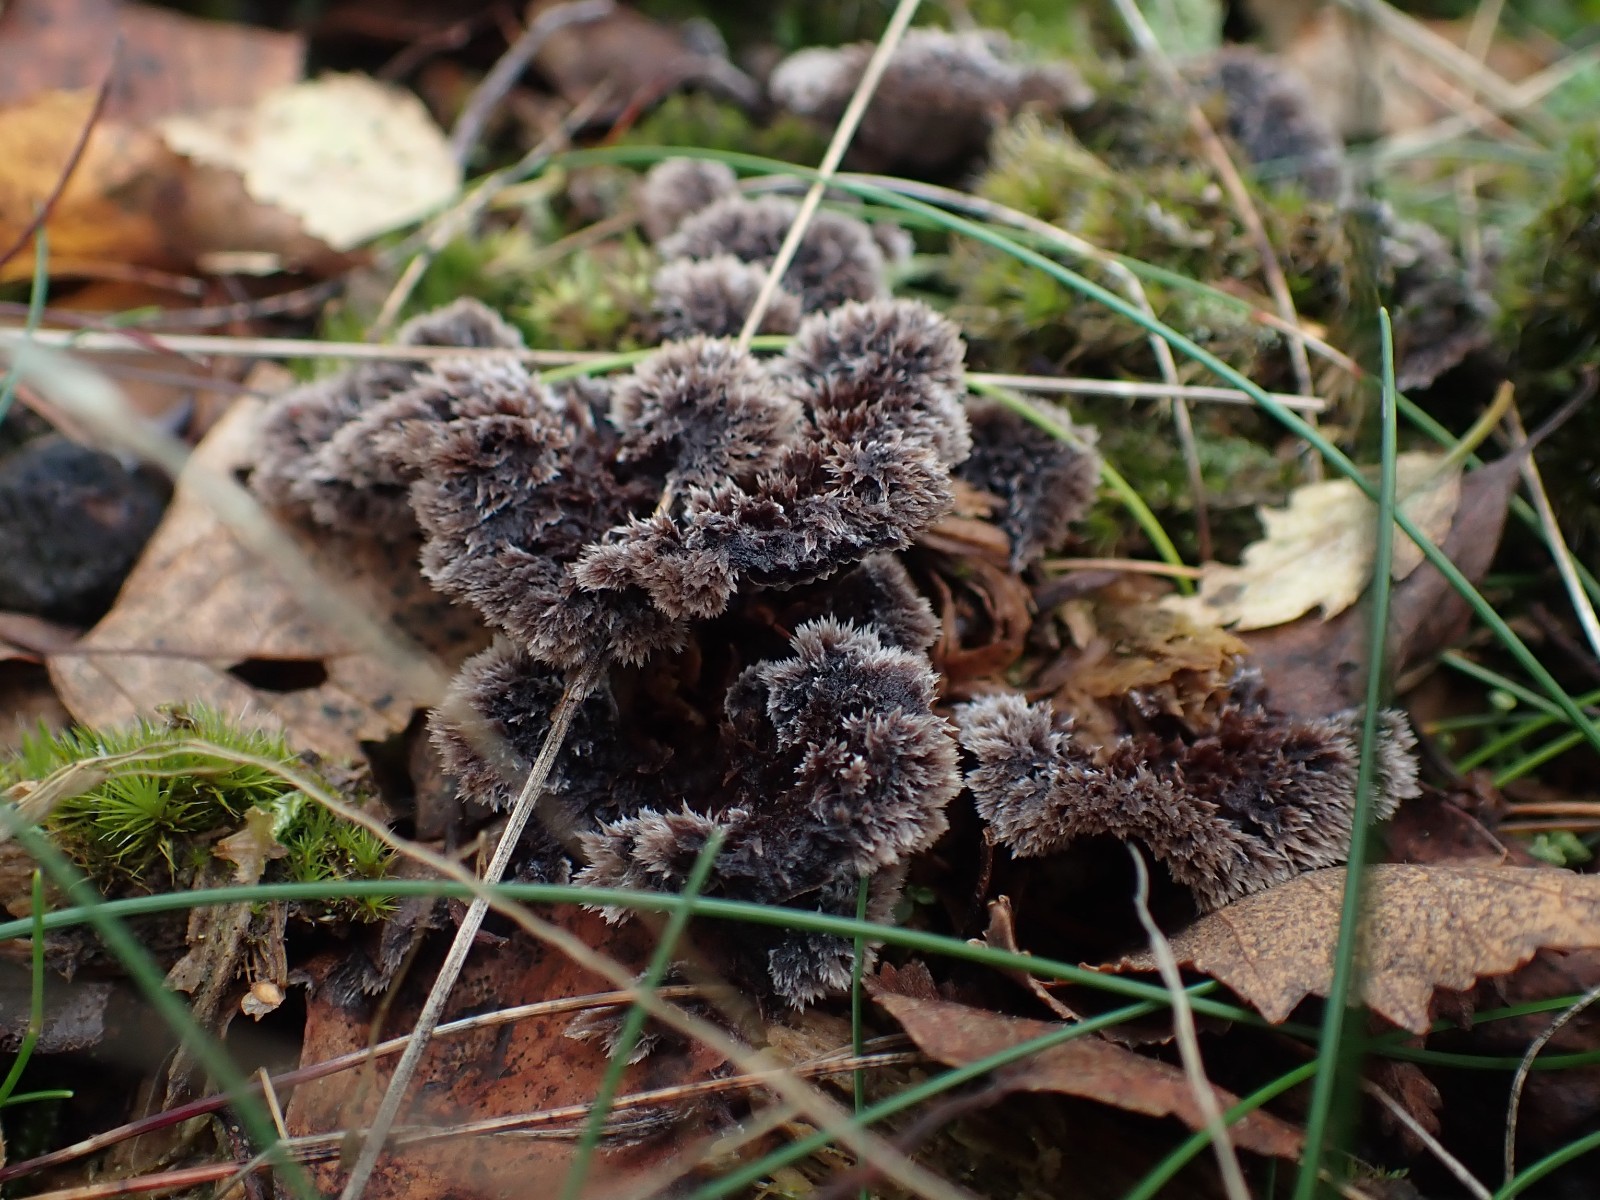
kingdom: Fungi
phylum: Basidiomycota
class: Agaricomycetes
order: Thelephorales
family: Thelephoraceae
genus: Thelephora
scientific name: Thelephora terrestris
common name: fliget frynsesvamp
